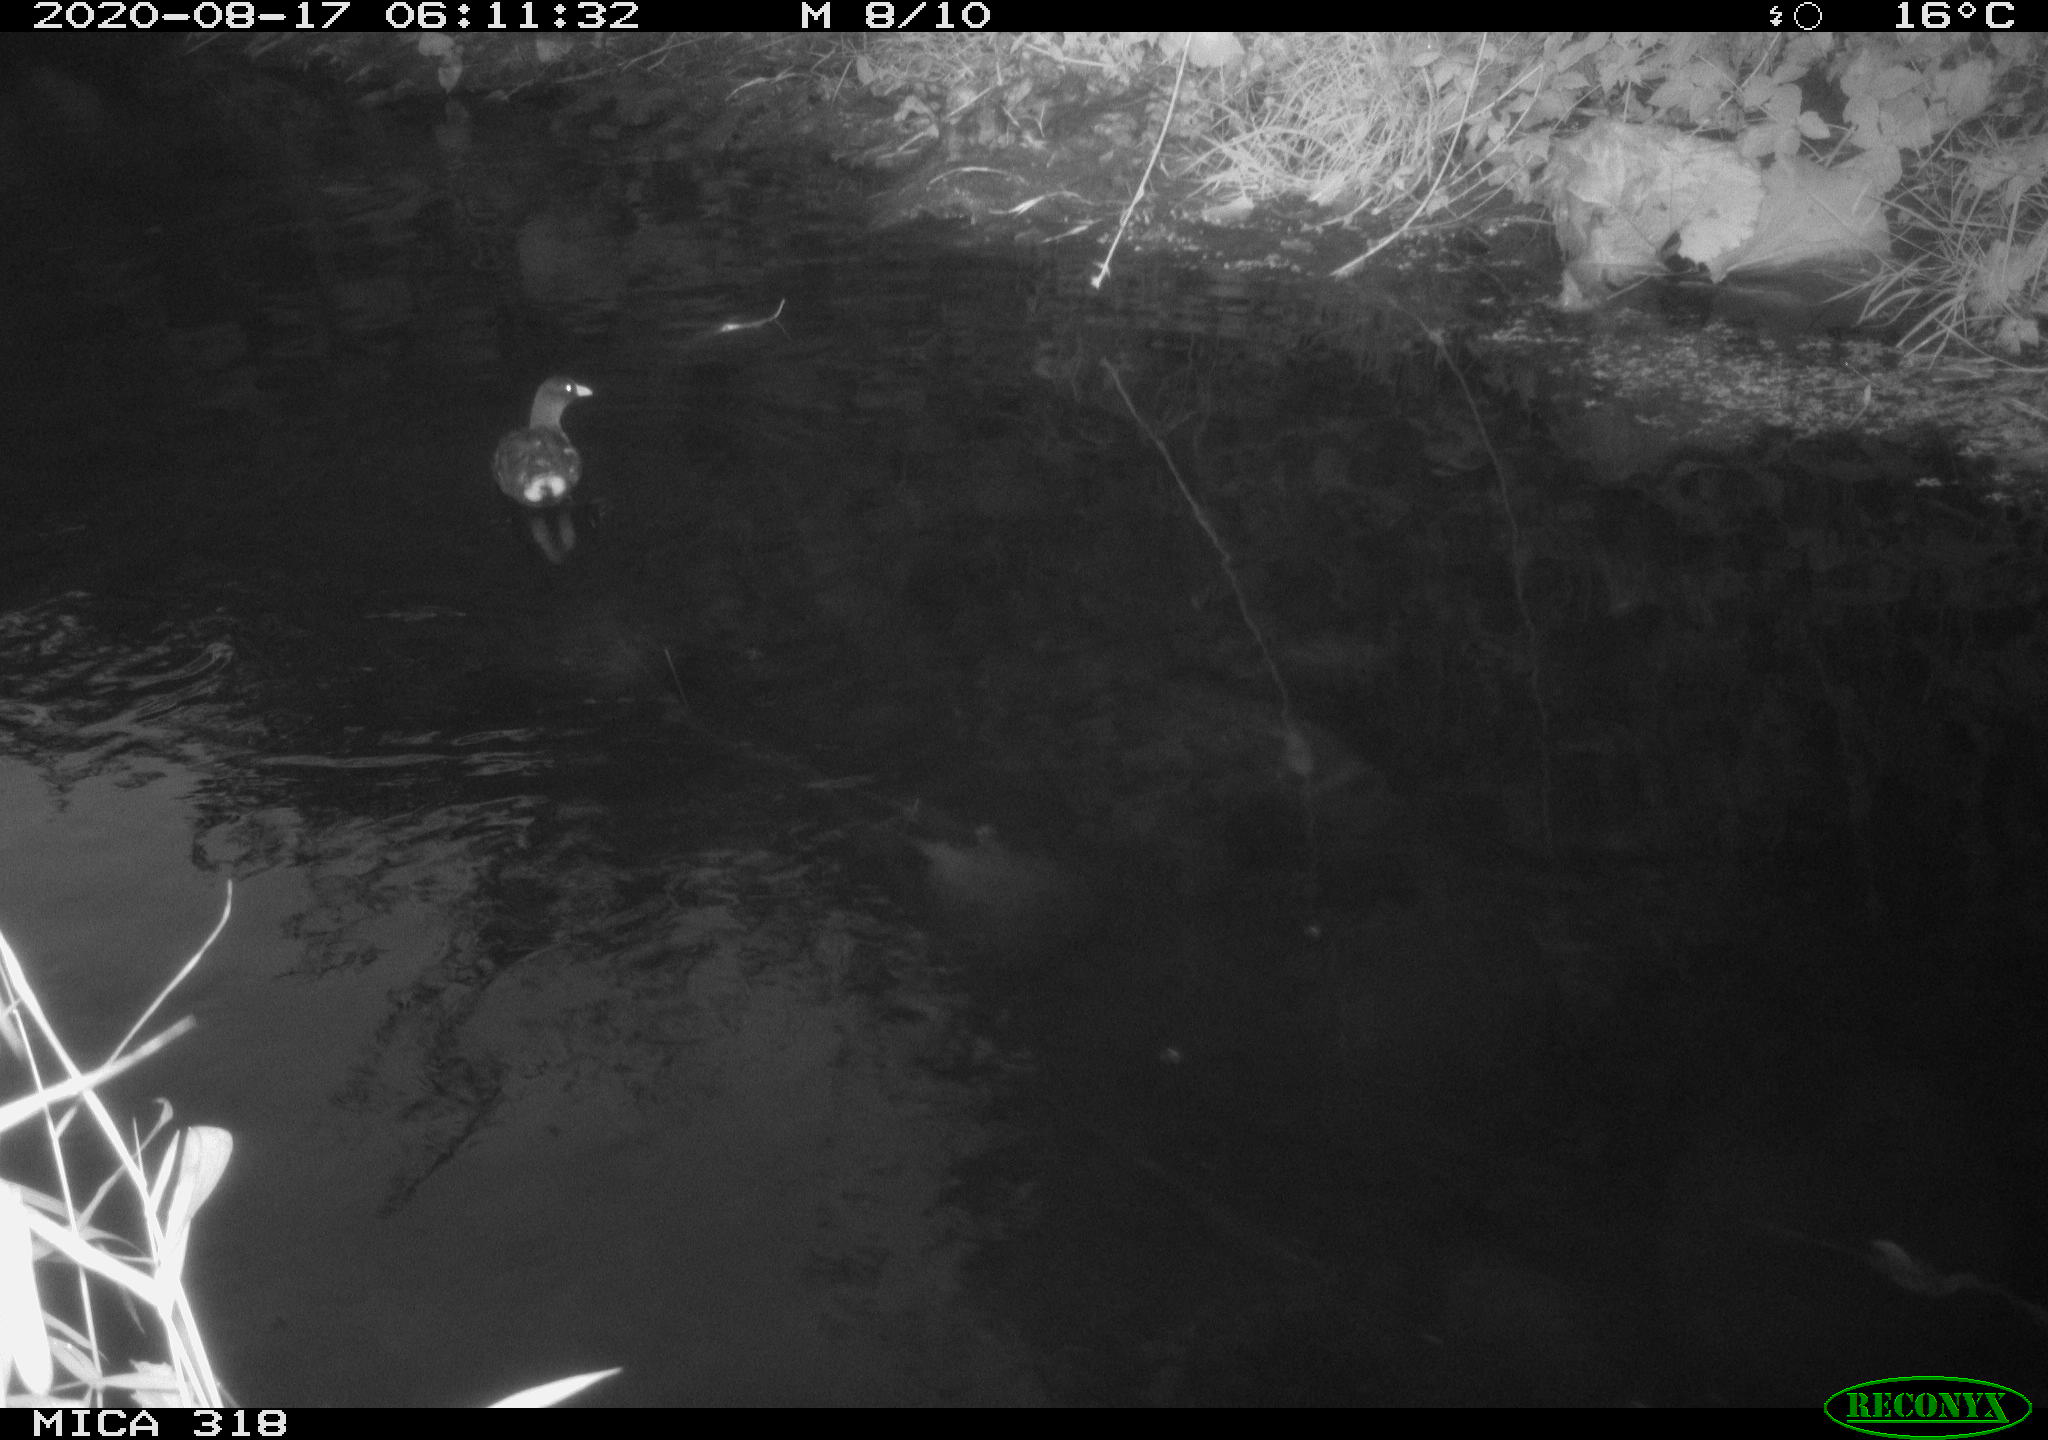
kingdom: Animalia
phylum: Chordata
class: Aves
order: Gruiformes
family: Rallidae
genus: Gallinula
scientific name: Gallinula chloropus
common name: Common moorhen
